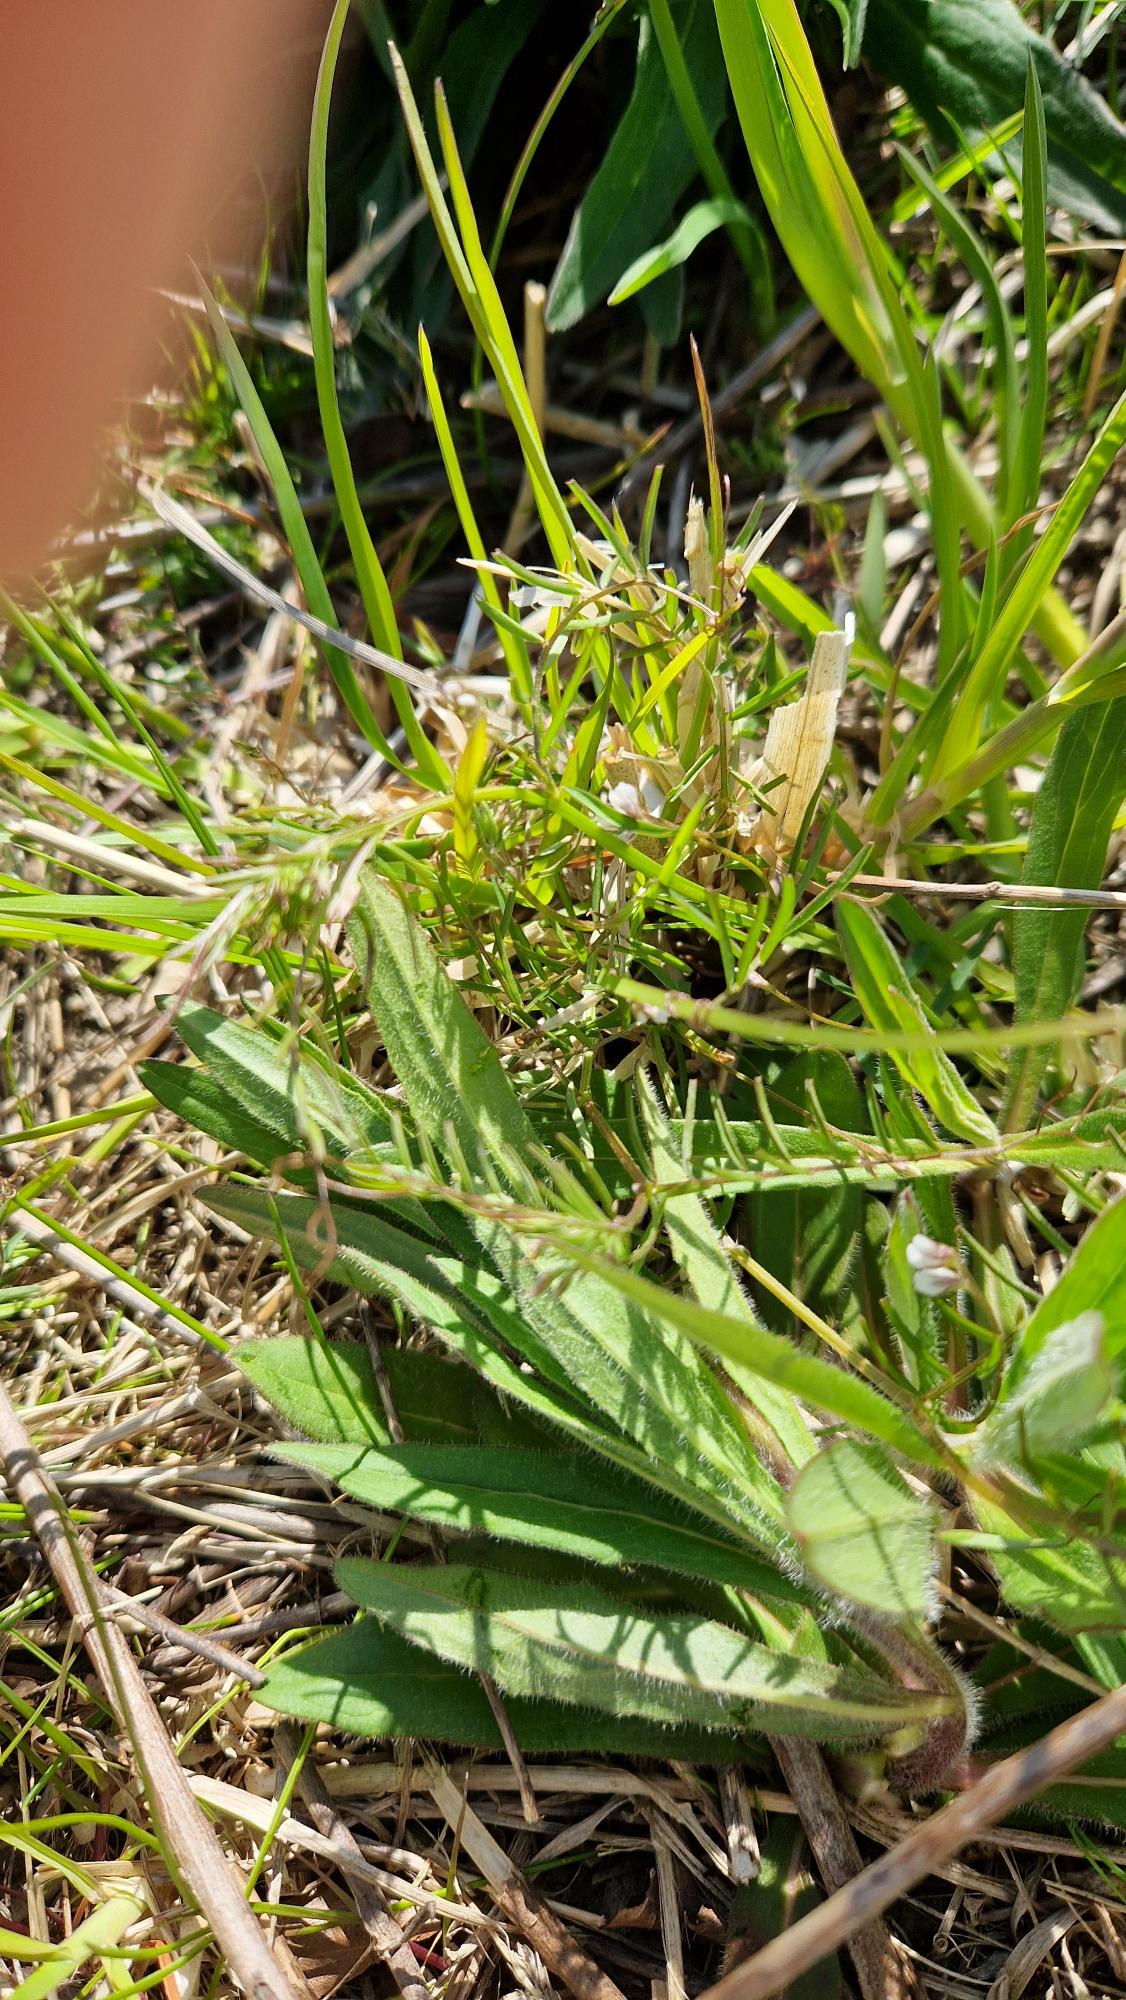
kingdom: Plantae
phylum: Tracheophyta
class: Magnoliopsida
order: Fabales
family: Fabaceae
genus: Vicia
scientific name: Vicia hirsuta
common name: Tofrøet vikke
